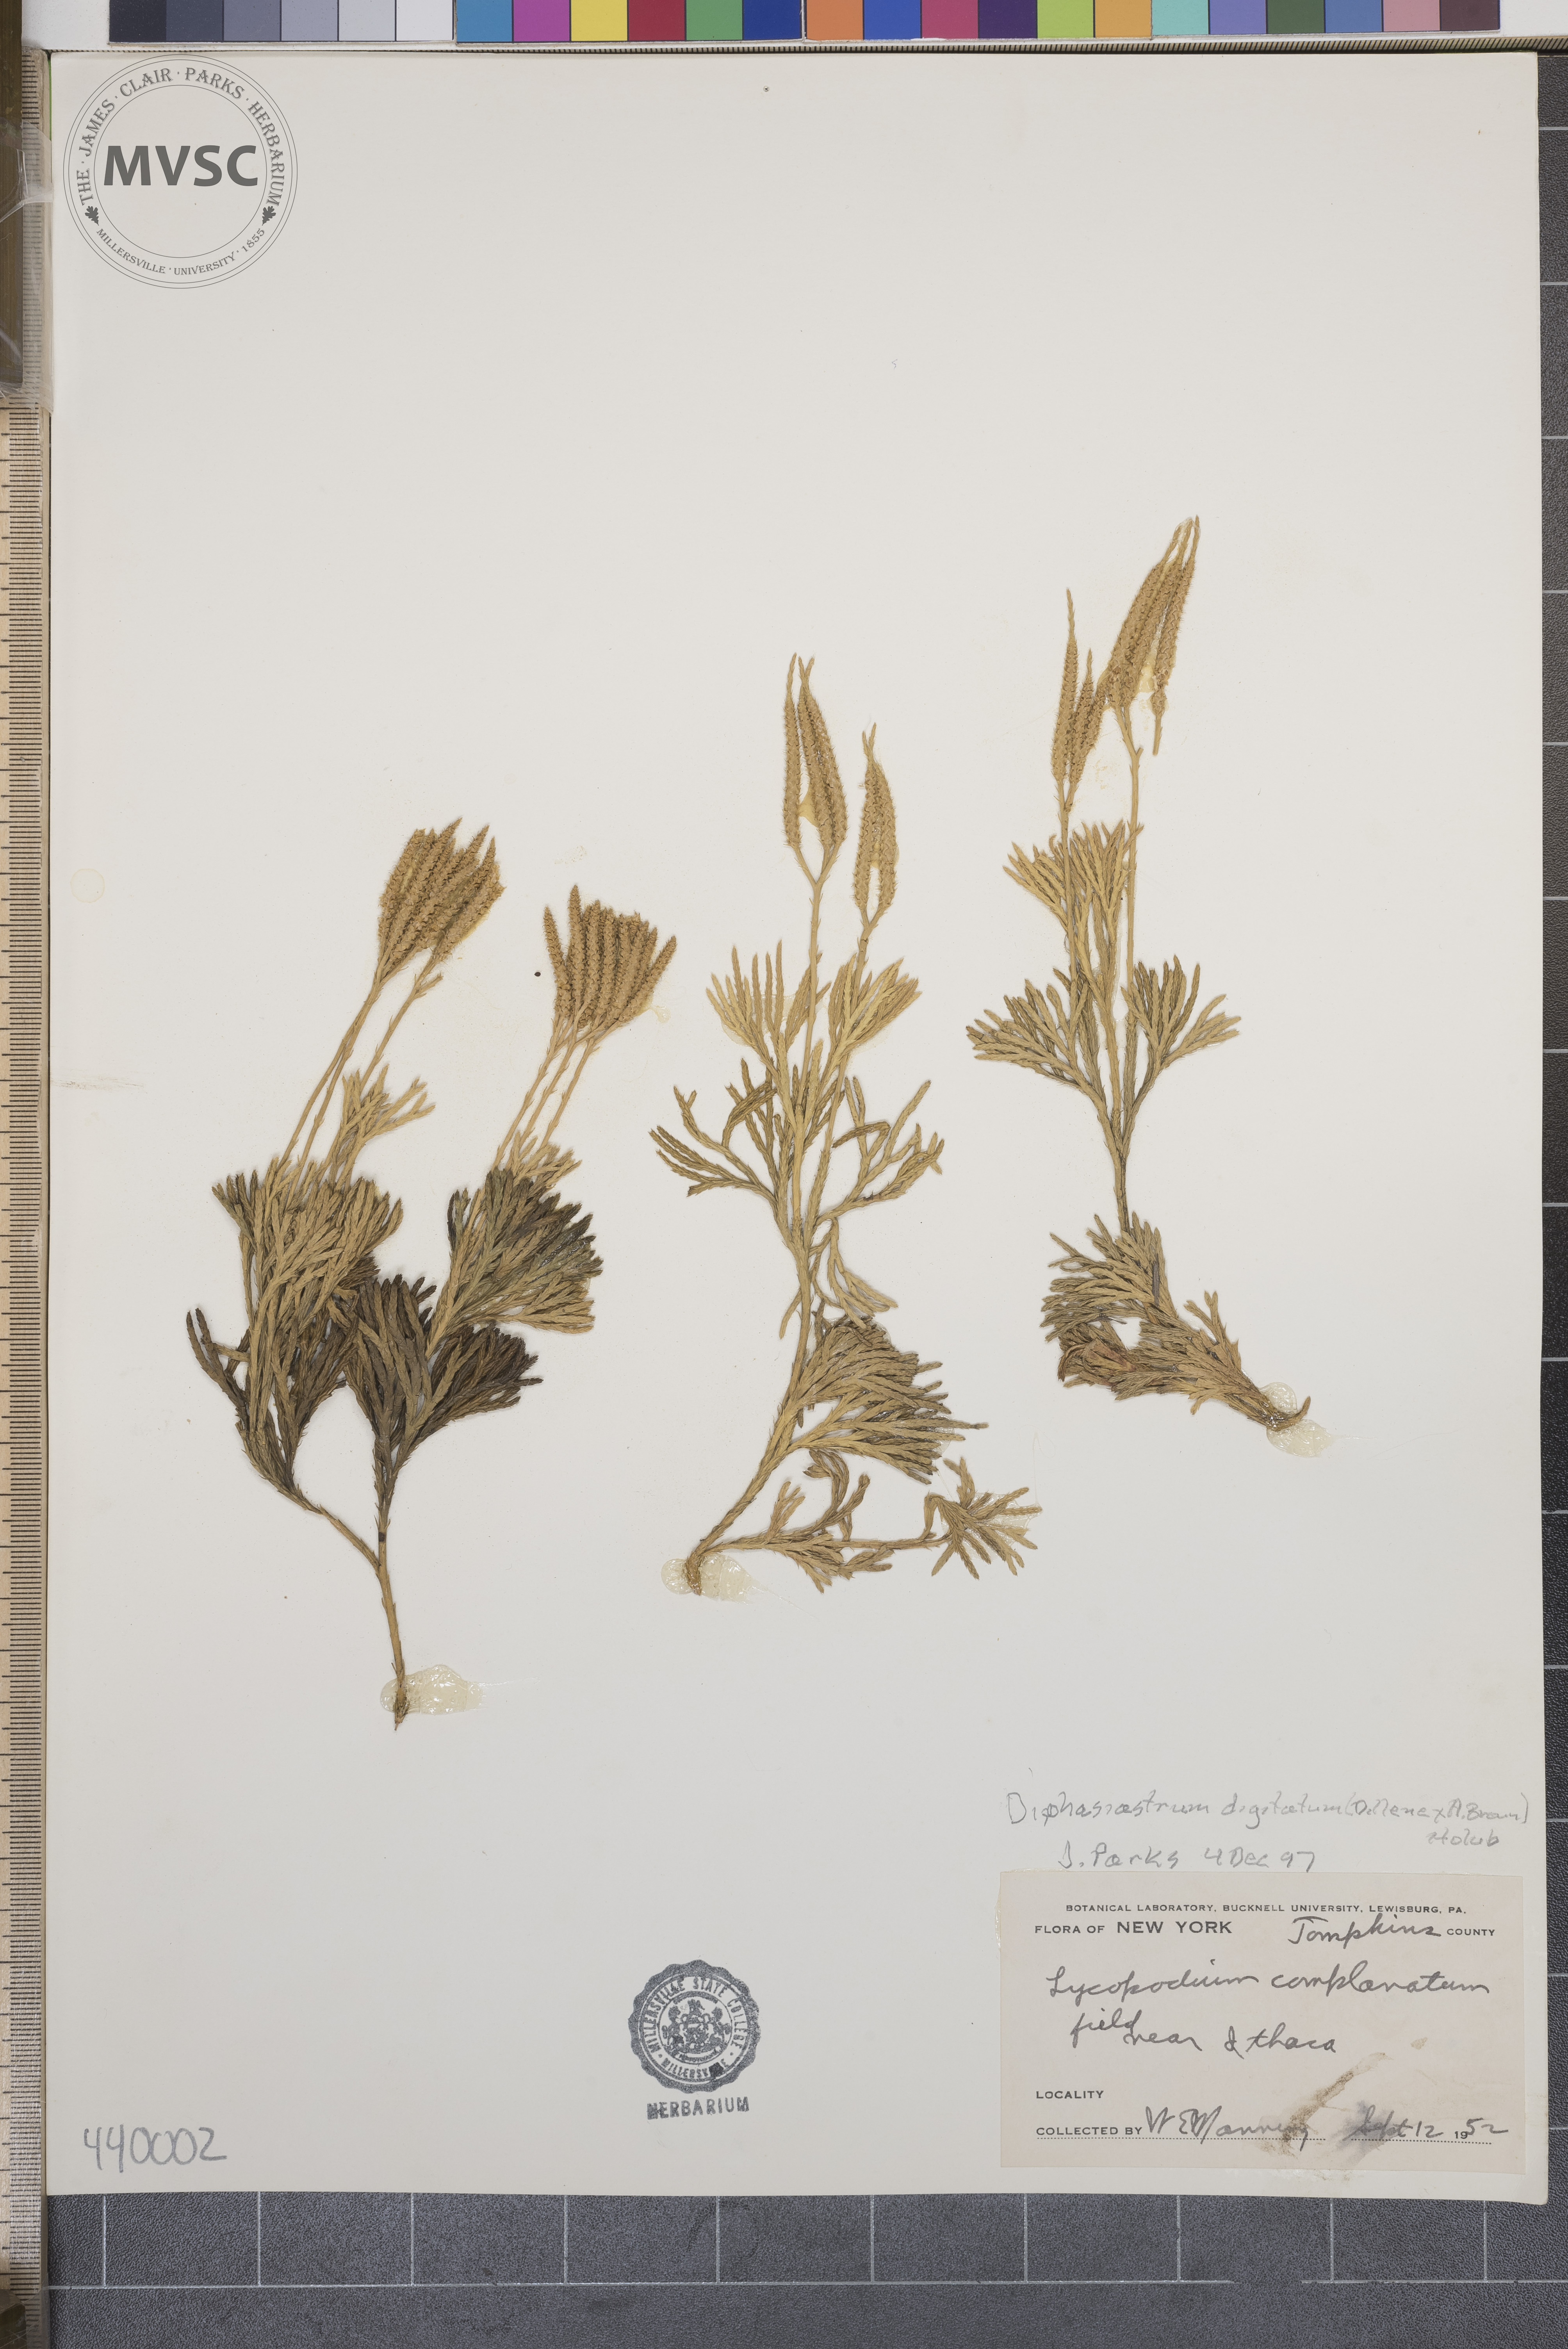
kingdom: Plantae
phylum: Tracheophyta
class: Lycopodiopsida
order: Lycopodiales
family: Lycopodiaceae
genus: Diphasiastrum
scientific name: Diphasiastrum digitatum
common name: Southern running-pine
